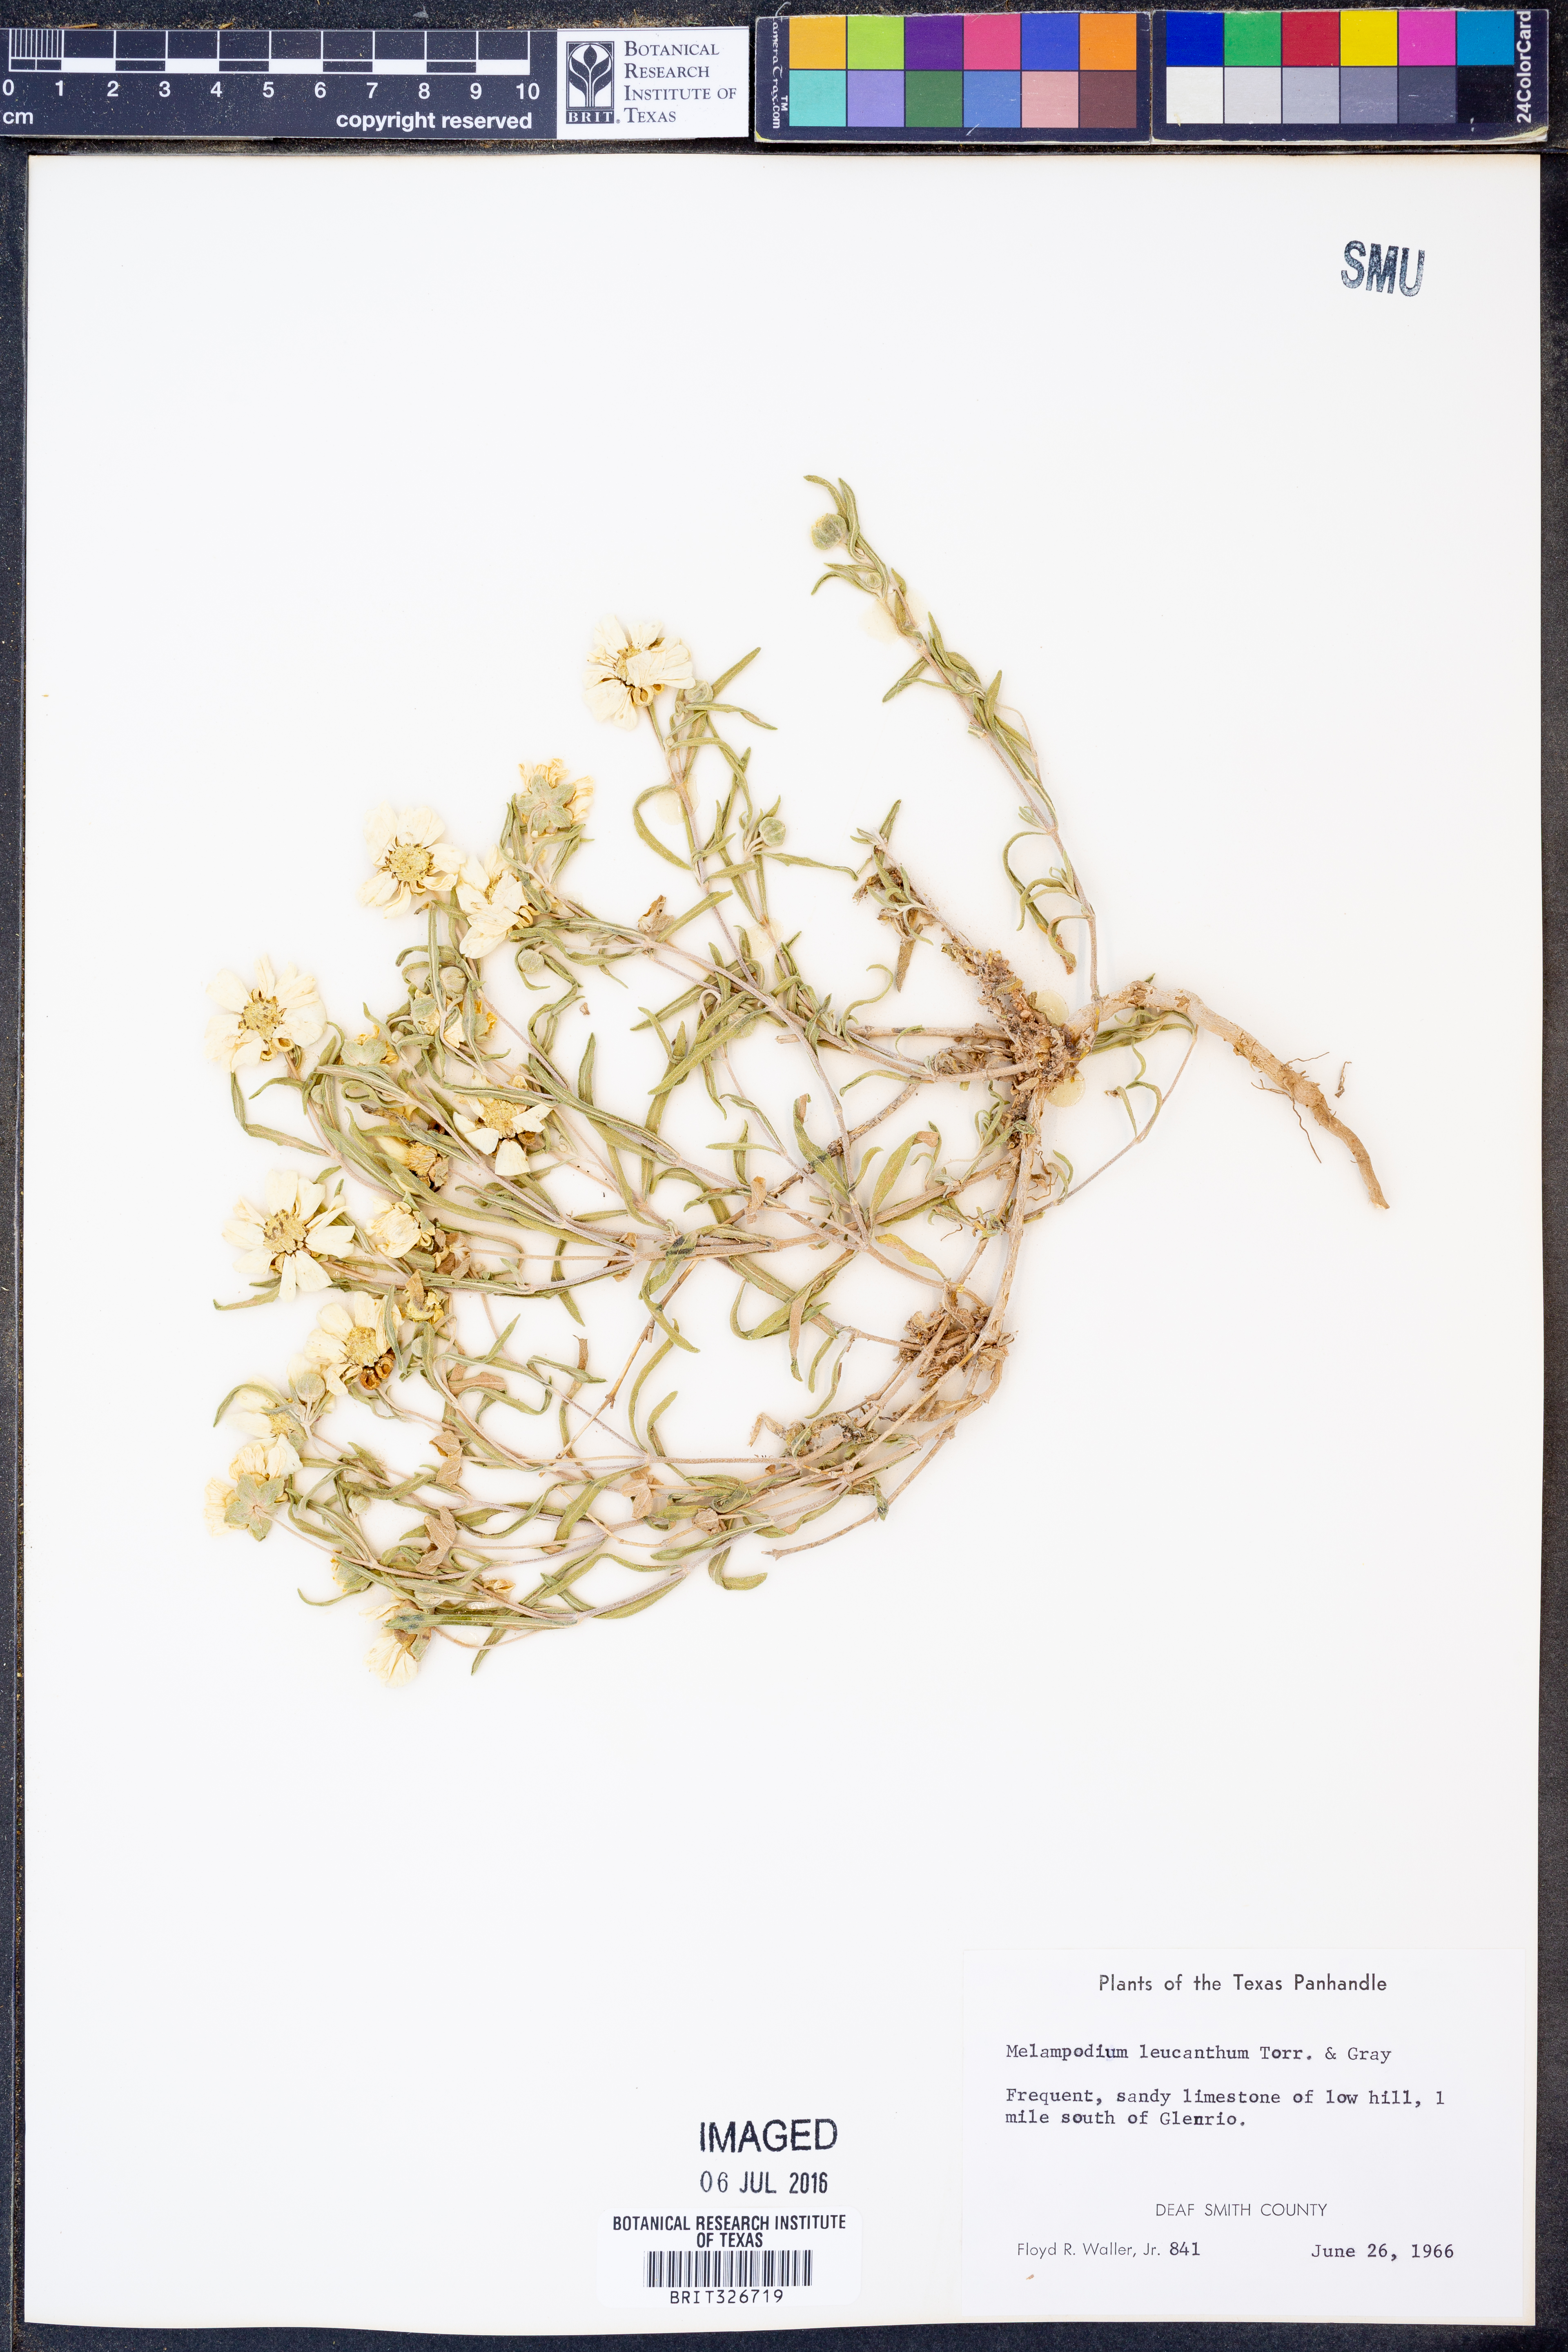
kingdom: Plantae
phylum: Tracheophyta
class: Magnoliopsida
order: Asterales
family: Asteraceae
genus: Melampodium
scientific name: Melampodium leucanthum
